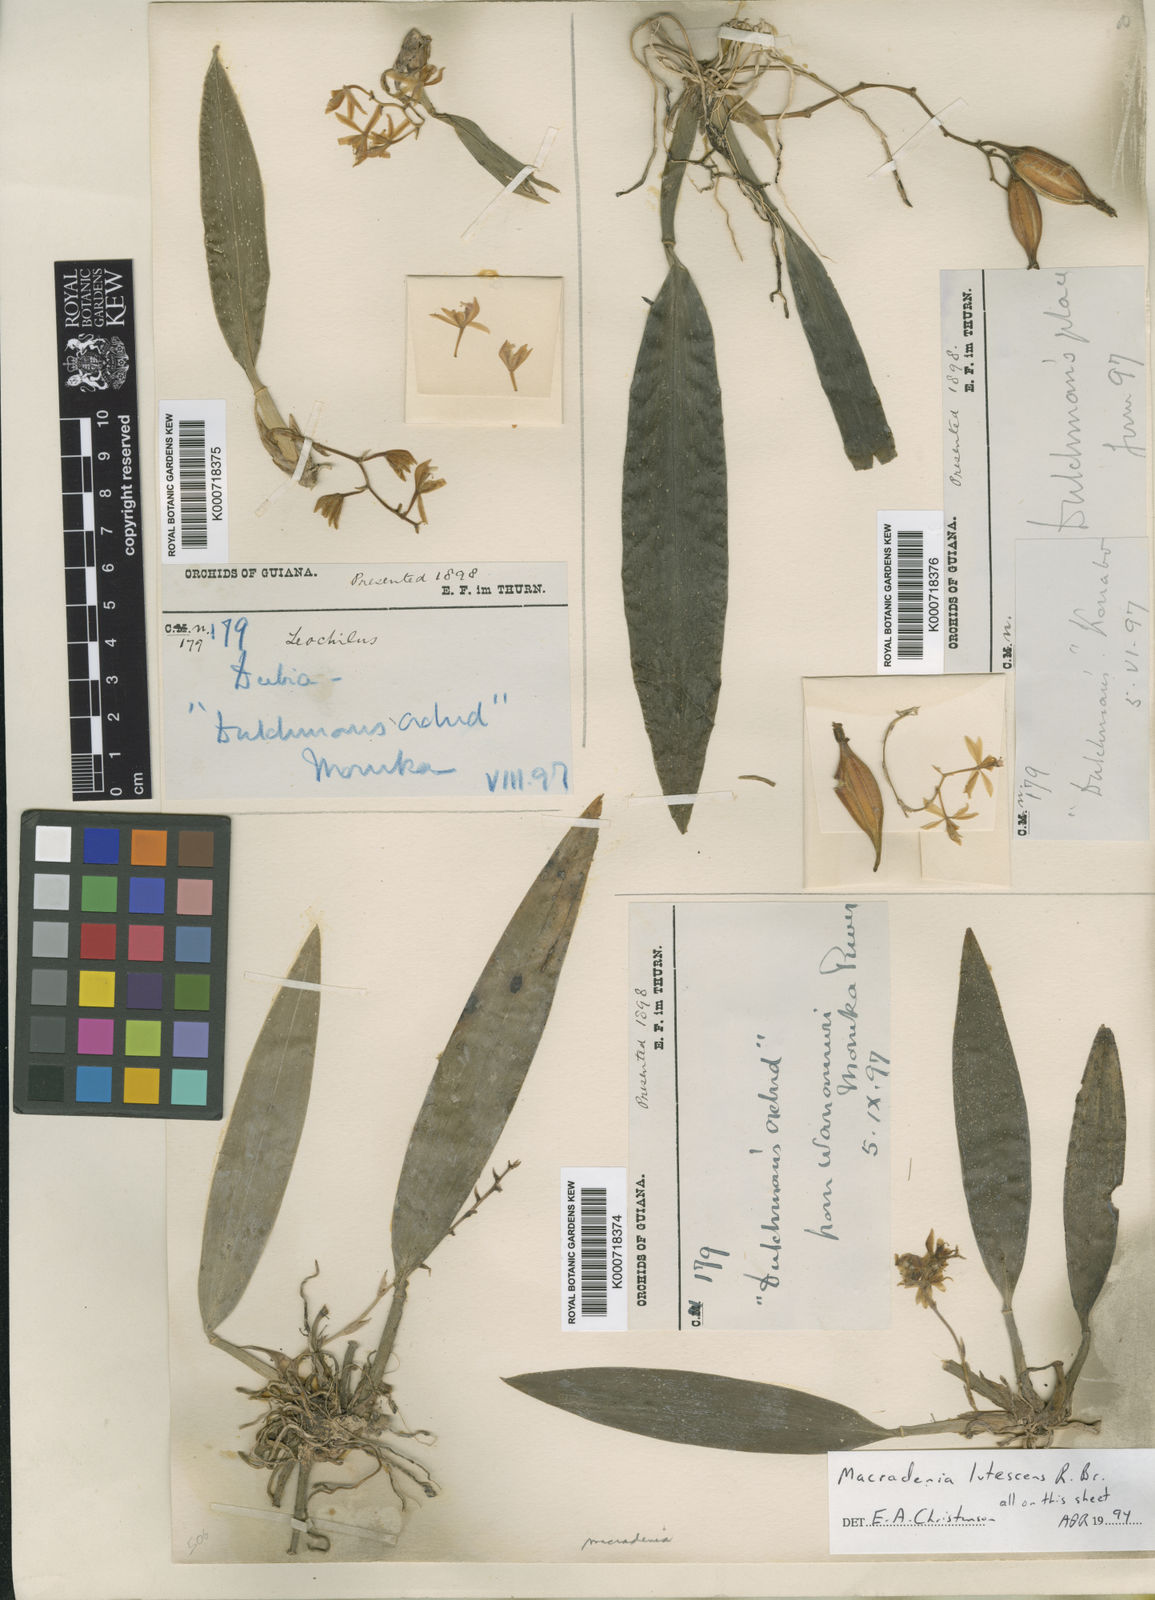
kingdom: Plantae
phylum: Tracheophyta
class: Liliopsida
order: Asparagales
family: Orchidaceae
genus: Macradenia
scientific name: Macradenia lutescens
